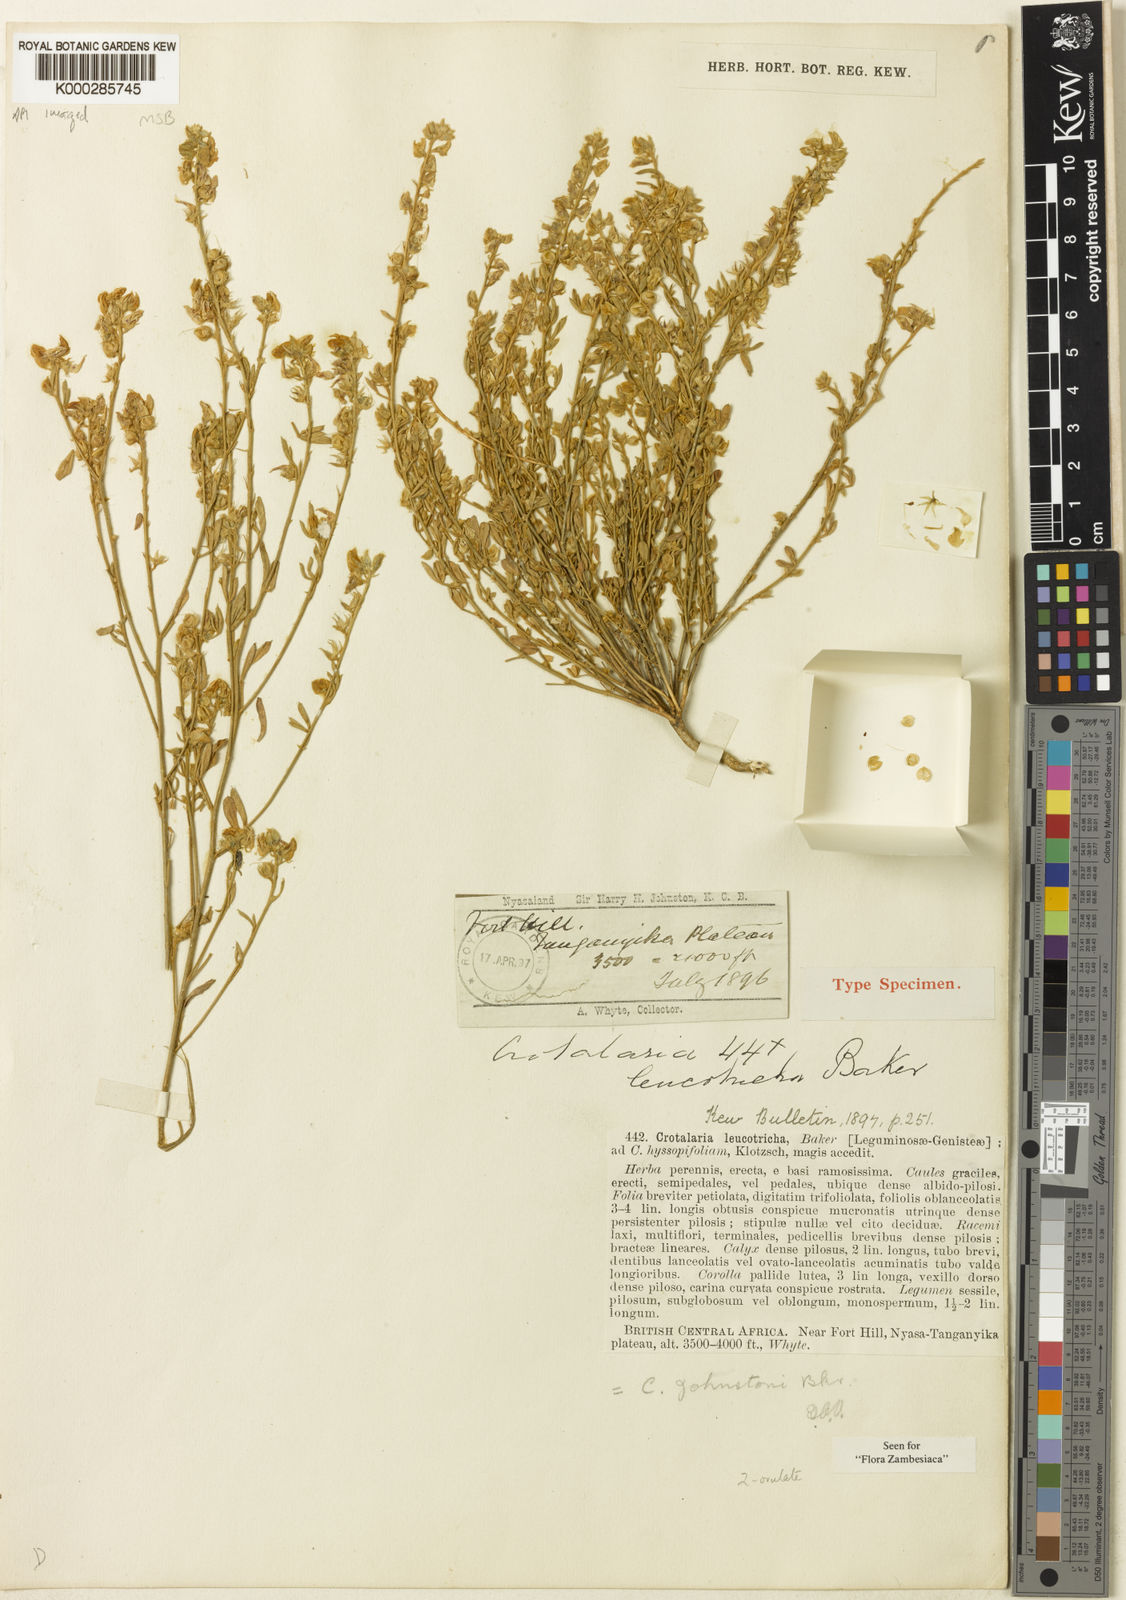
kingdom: Plantae
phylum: Tracheophyta
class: Magnoliopsida
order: Fabales
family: Fabaceae
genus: Crotalaria
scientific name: Crotalaria johnstonii
